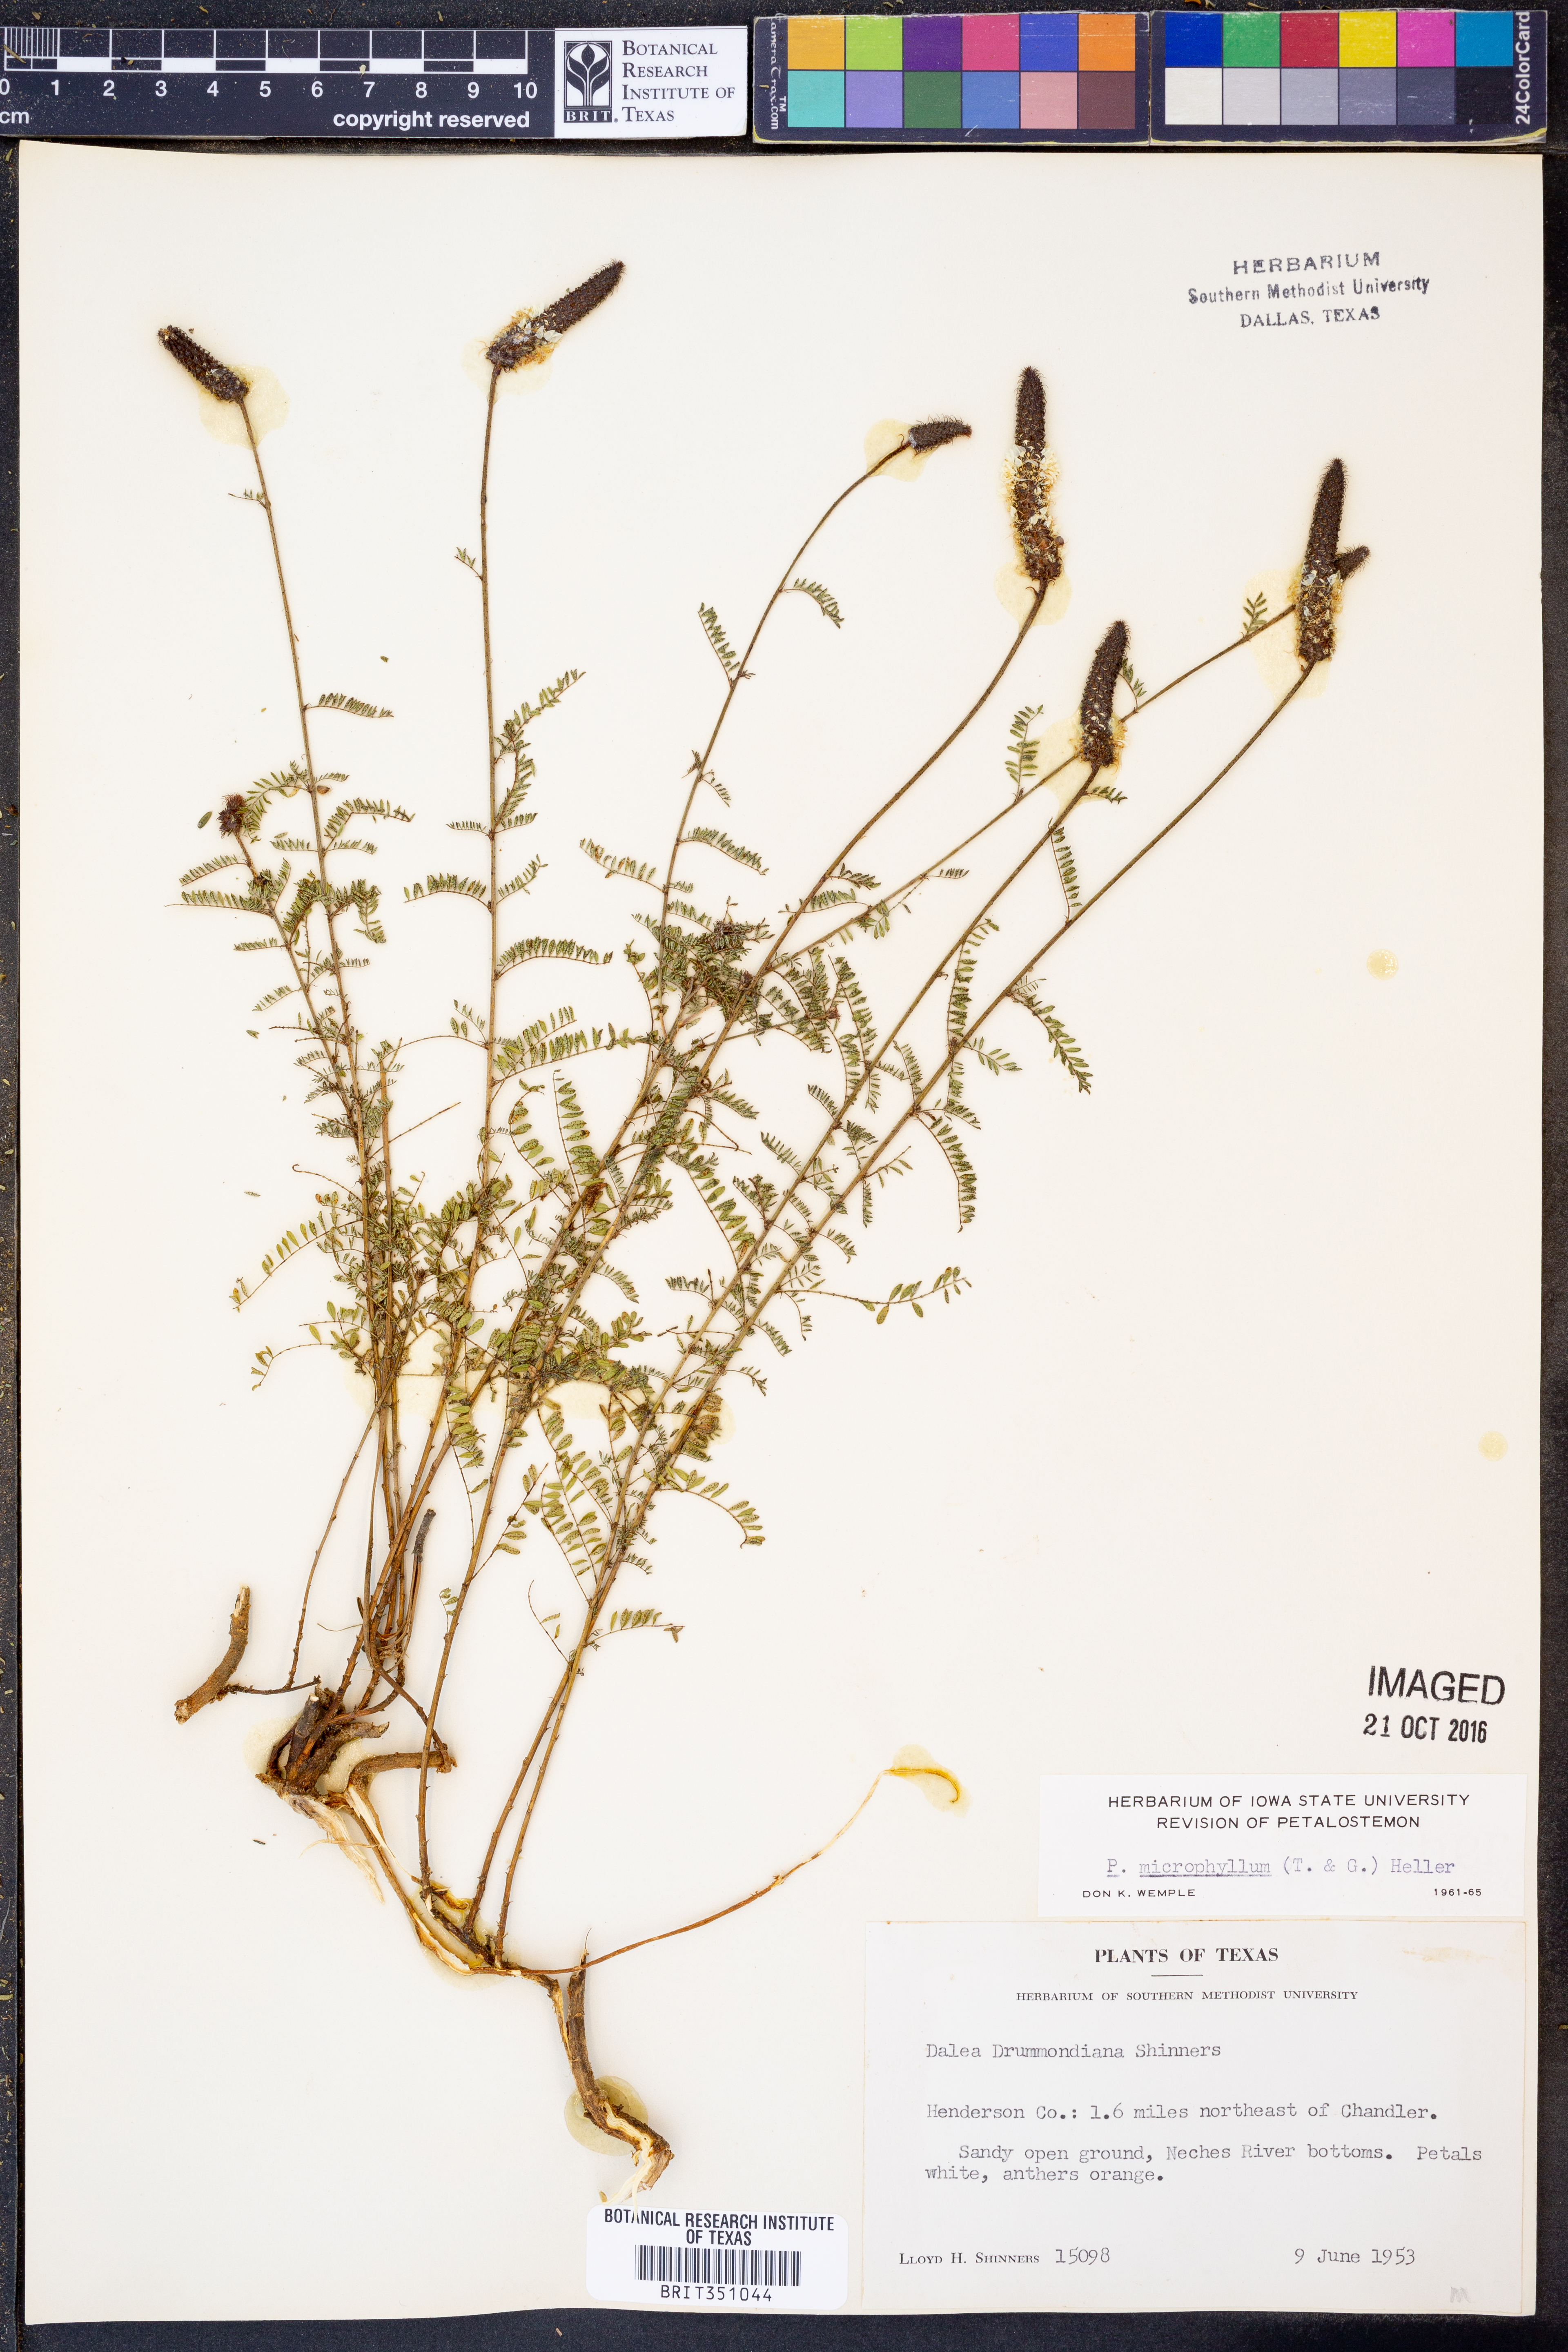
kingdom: Plantae
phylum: Tracheophyta
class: Magnoliopsida
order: Fabales
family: Fabaceae
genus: Dalea
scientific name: Dalea drummondiana
